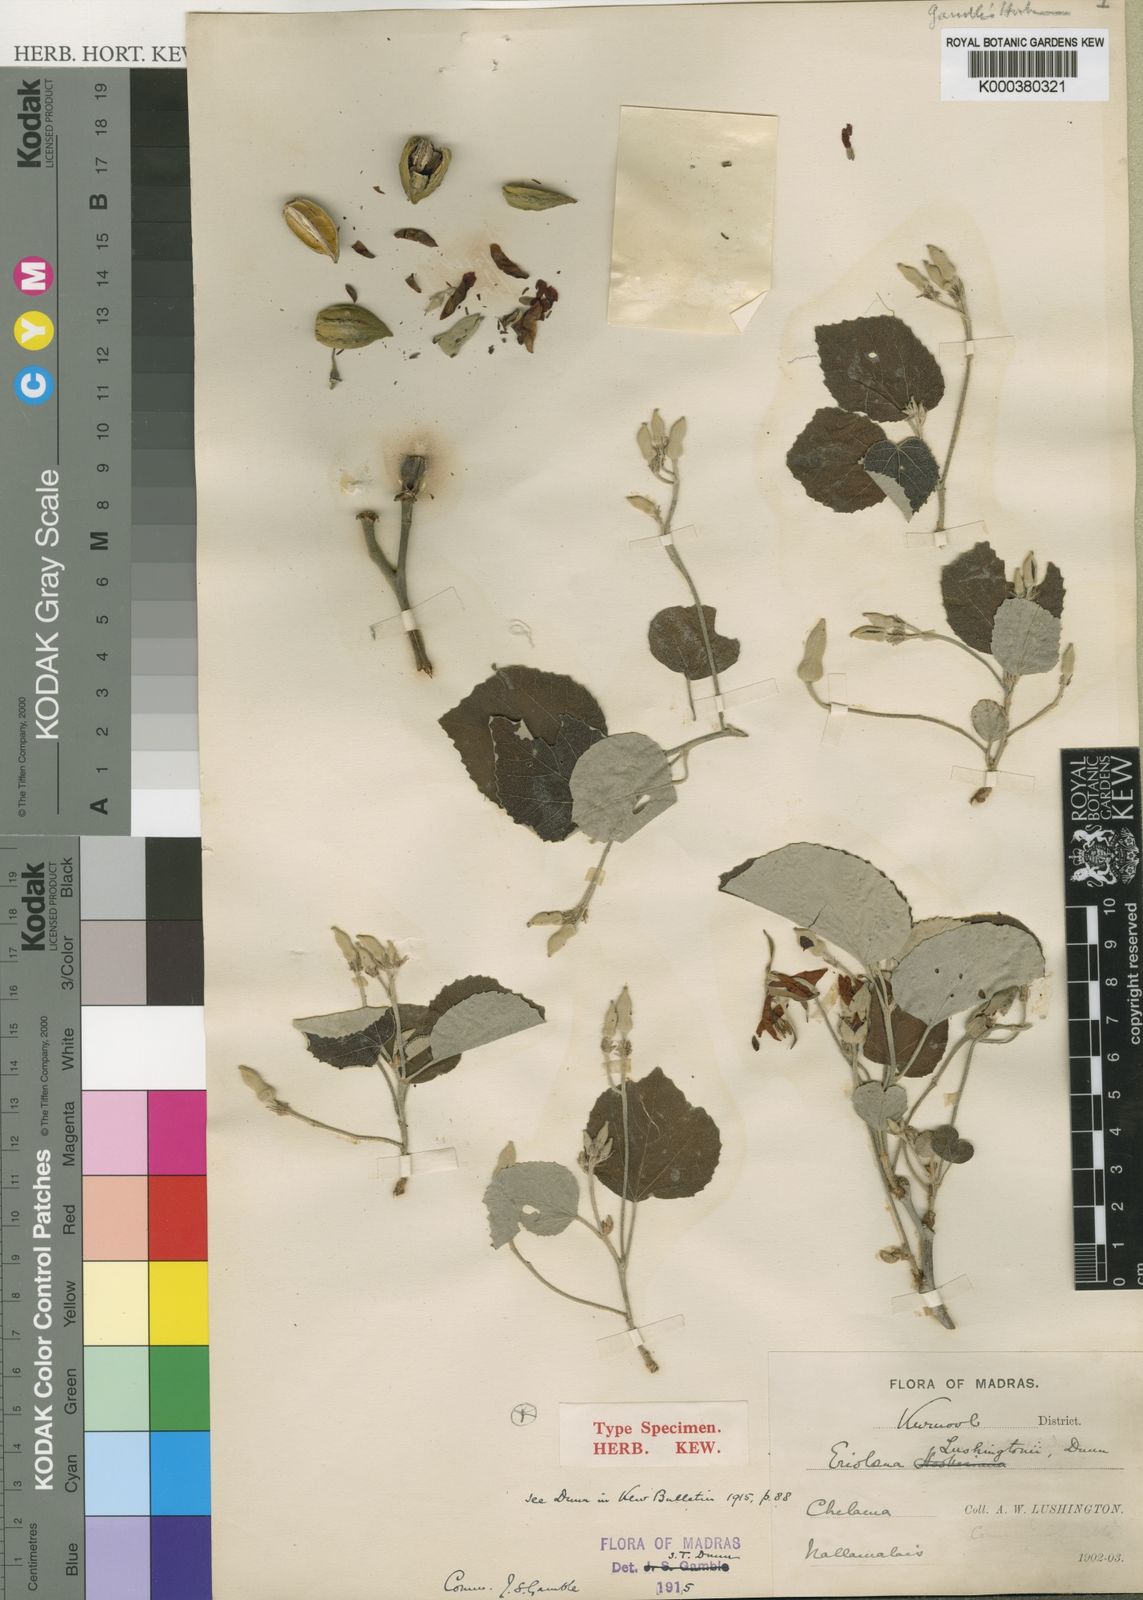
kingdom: Plantae
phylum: Tracheophyta
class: Magnoliopsida
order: Malvales
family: Malvaceae
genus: Eriolaena
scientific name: Eriolaena lushingtonii
